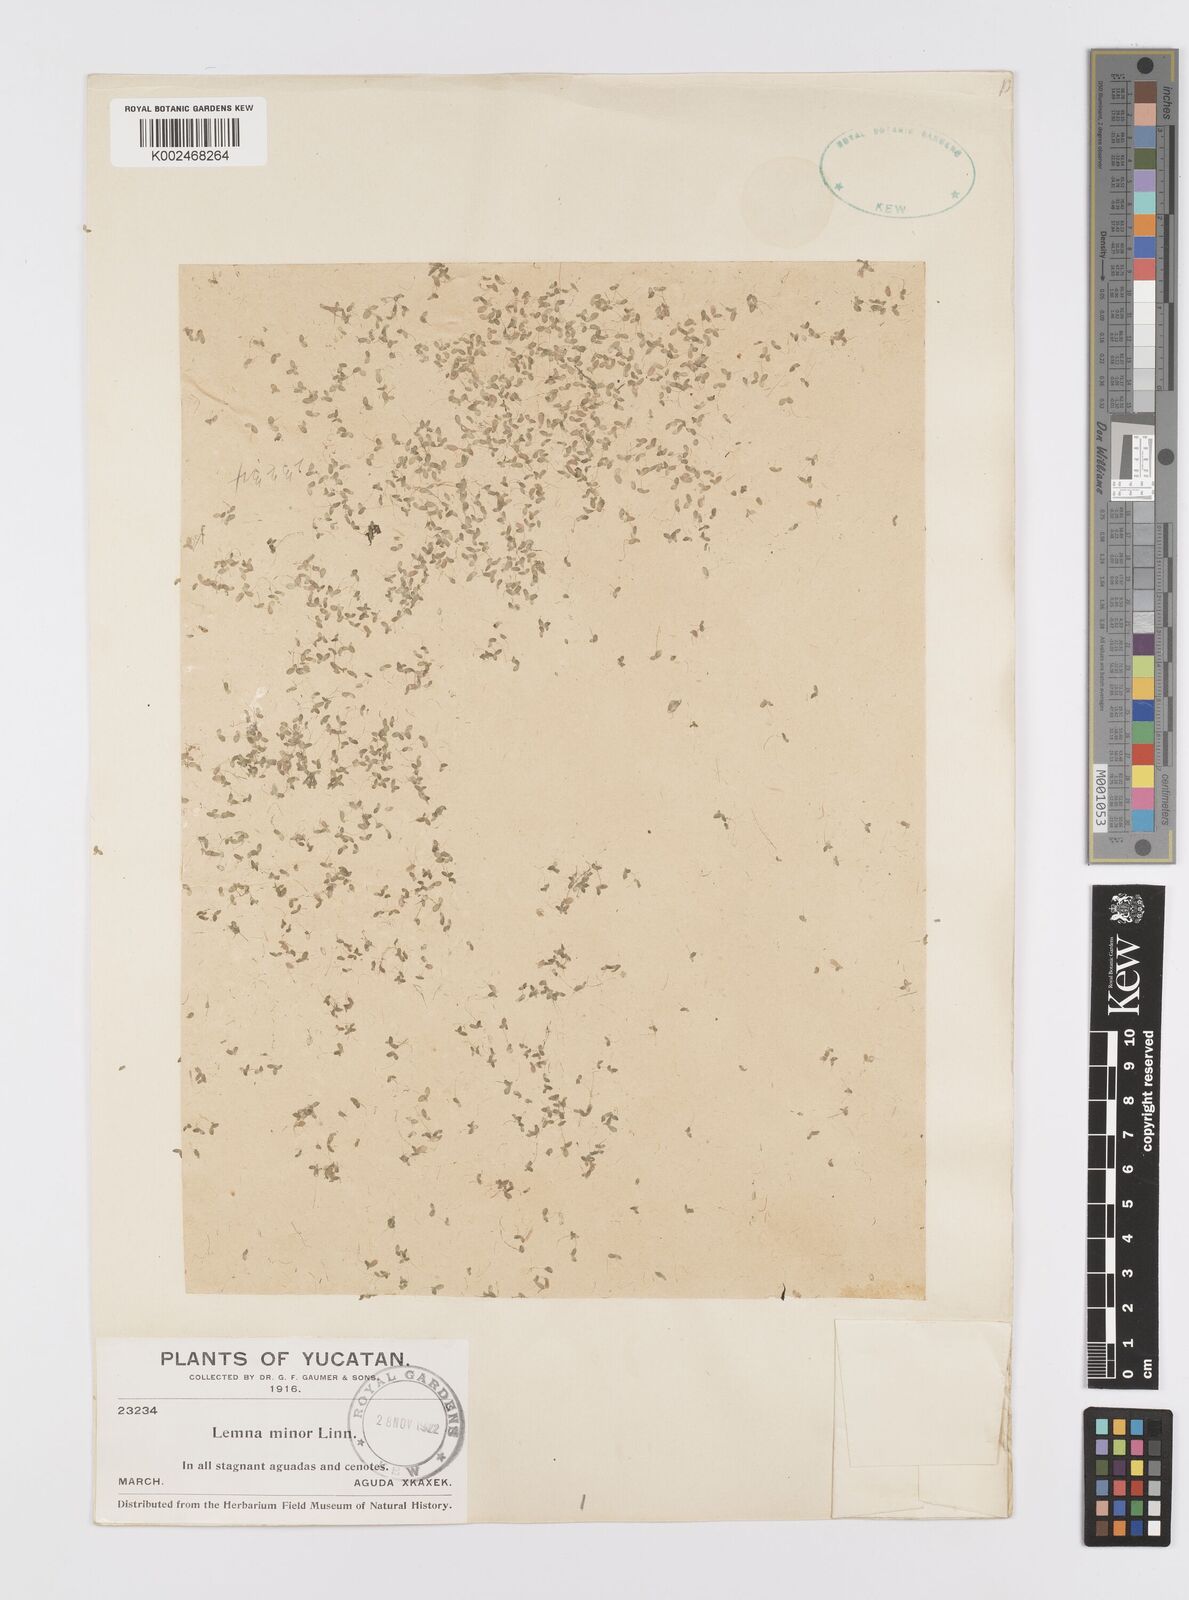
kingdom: Plantae
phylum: Tracheophyta
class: Liliopsida
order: Alismatales
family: Araceae
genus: Lemna
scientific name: Lemna minor
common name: Common duckweed
